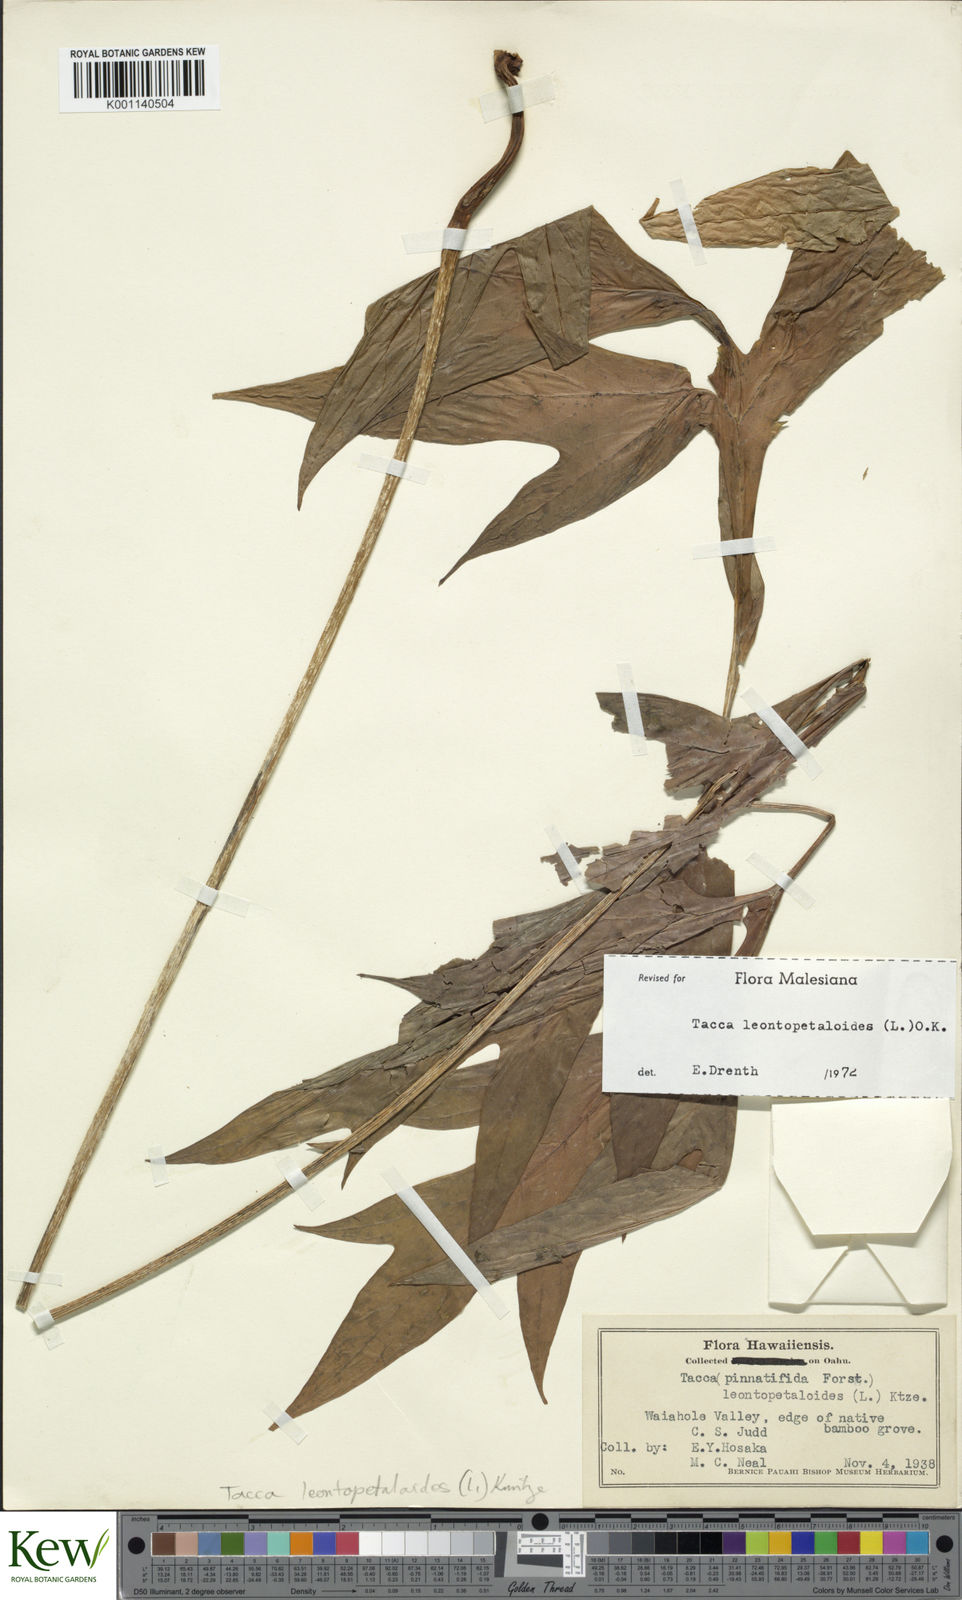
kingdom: Plantae
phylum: Tracheophyta
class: Liliopsida
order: Dioscoreales
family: Dioscoreaceae
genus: Tacca
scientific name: Tacca leontopetaloides
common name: Arrowroot
